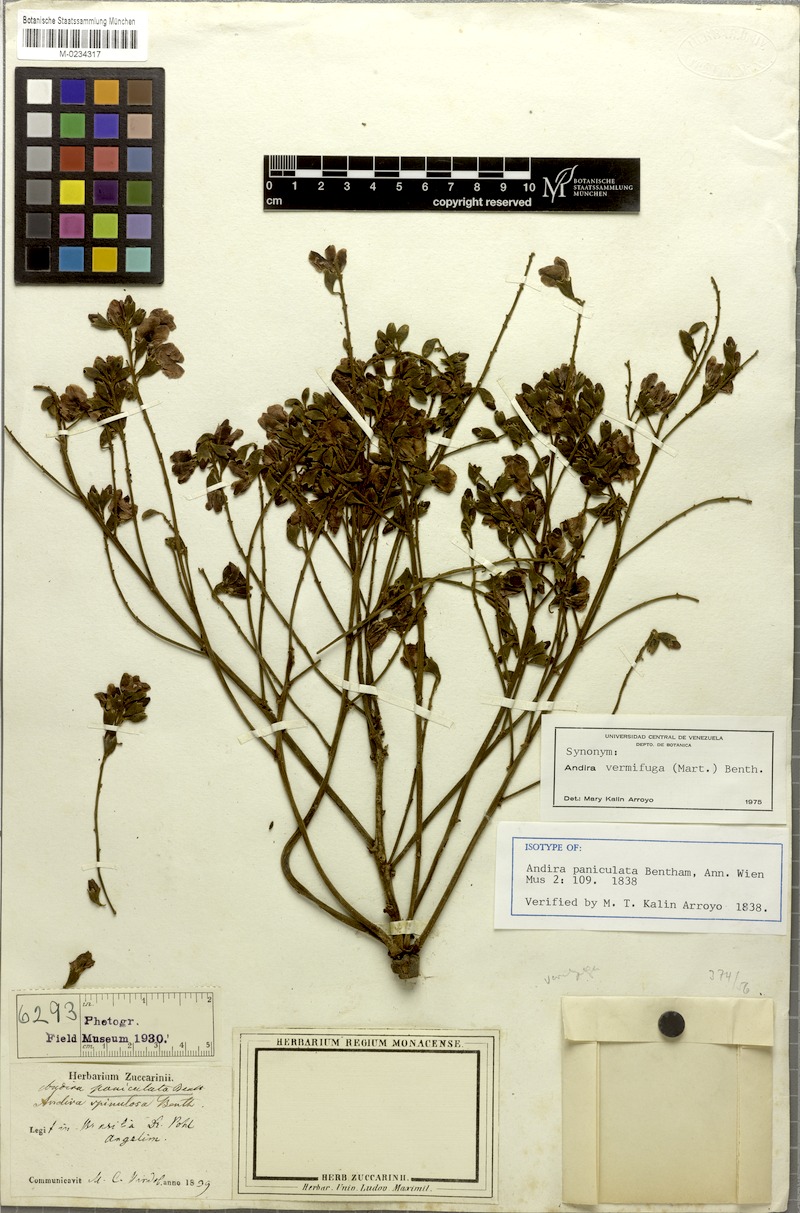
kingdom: Plantae
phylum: Tracheophyta
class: Magnoliopsida
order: Fabales
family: Fabaceae
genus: Andira
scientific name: Andira vermifuga
